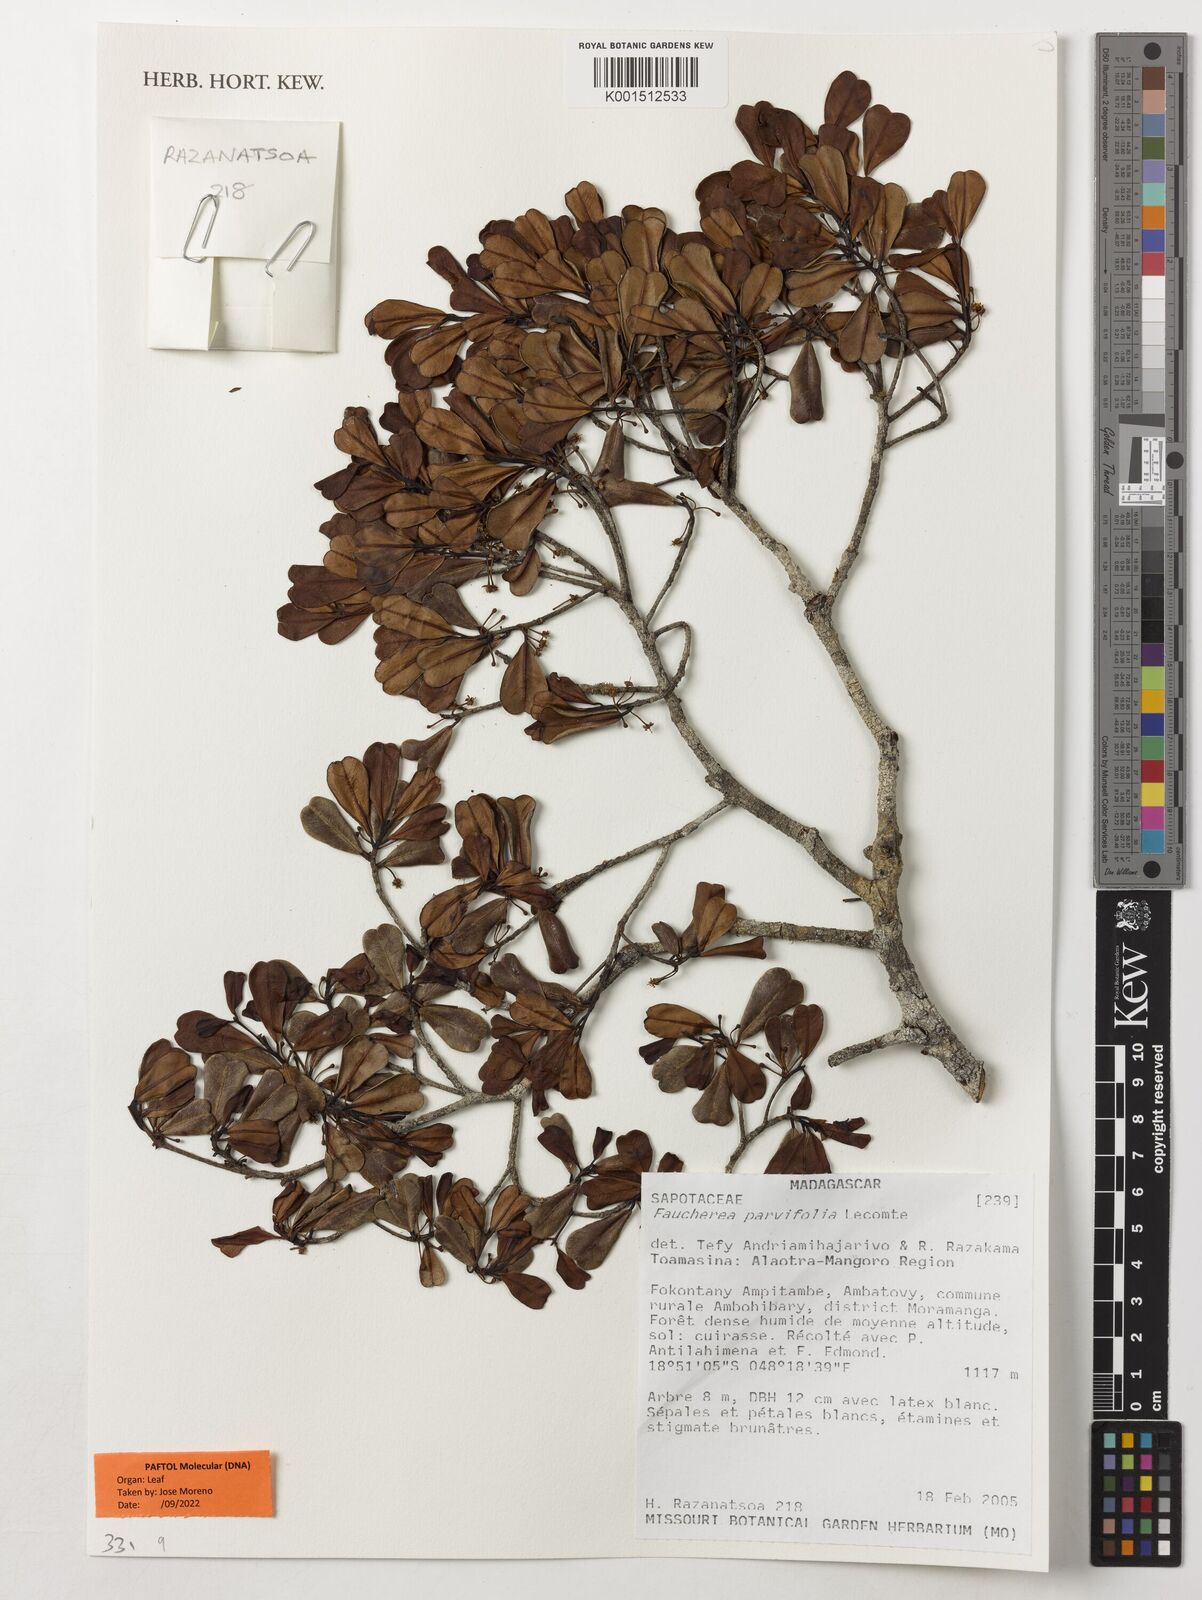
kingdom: Plantae
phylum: Tracheophyta
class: Magnoliopsida
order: Ericales
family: Sapotaceae
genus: Faucherea
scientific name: Faucherea parvifolia
